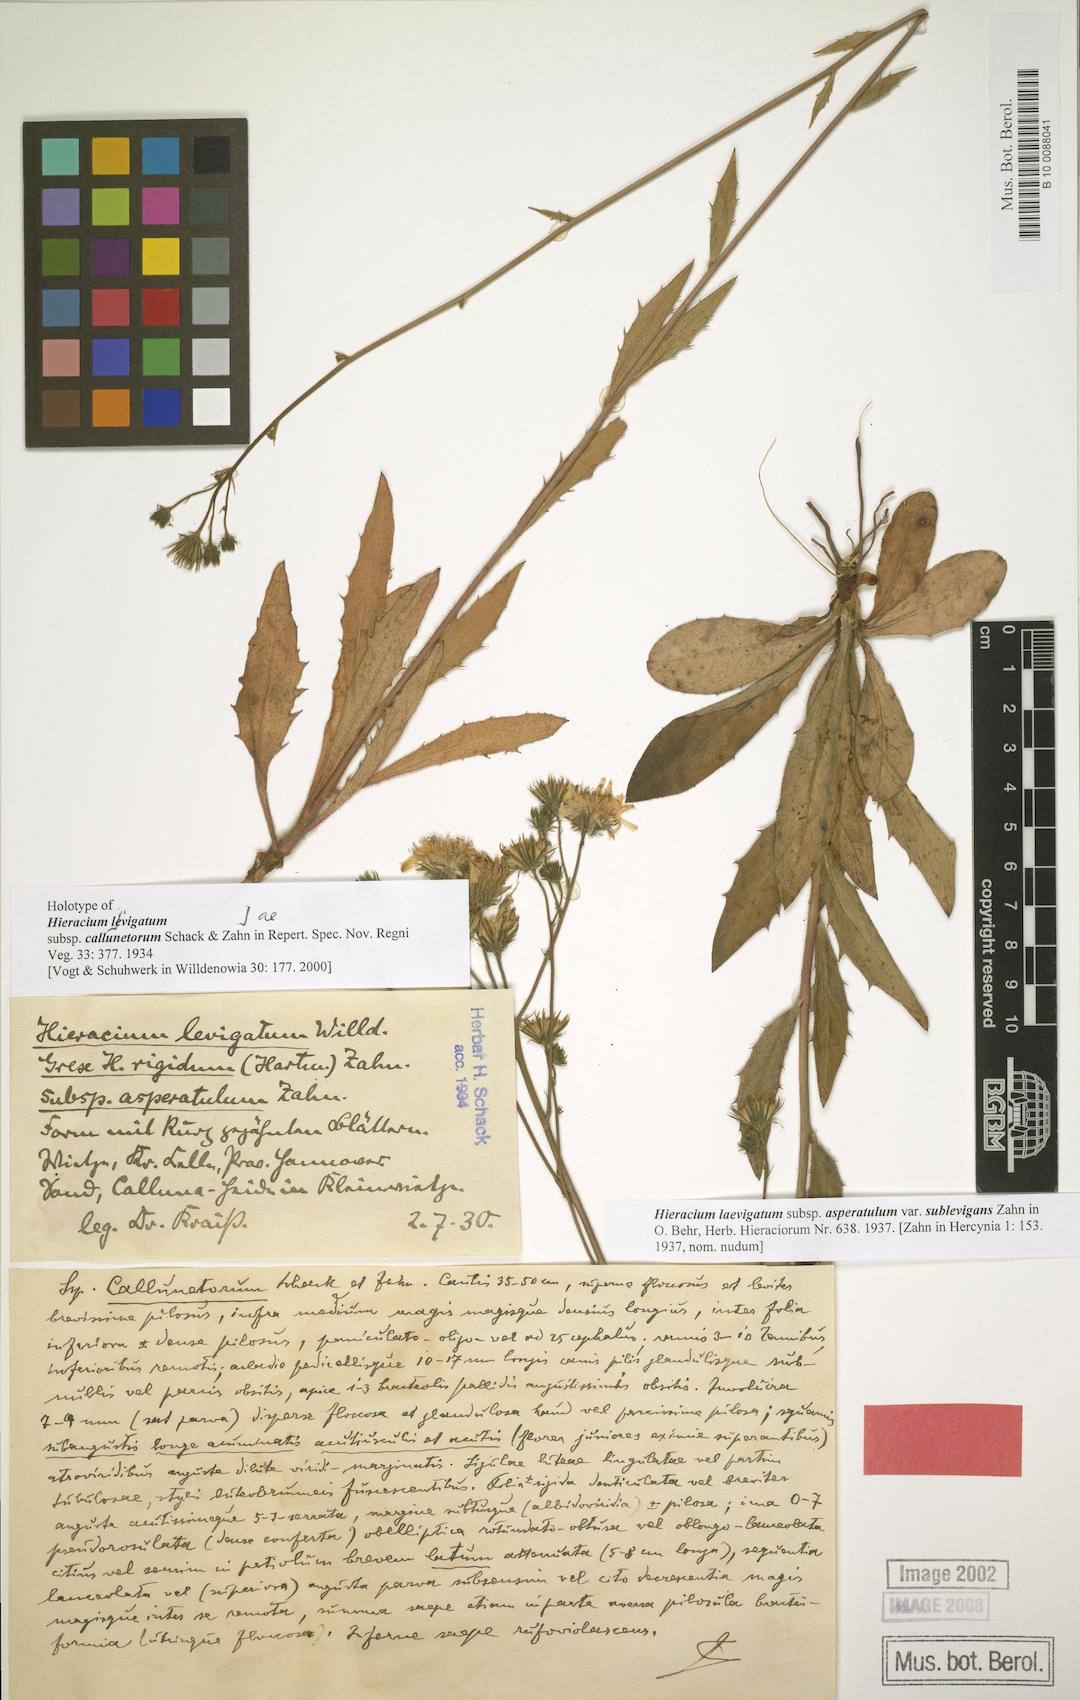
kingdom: Plantae
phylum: Tracheophyta
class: Magnoliopsida
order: Asterales
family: Asteraceae
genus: Hieracium
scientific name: Hieracium
